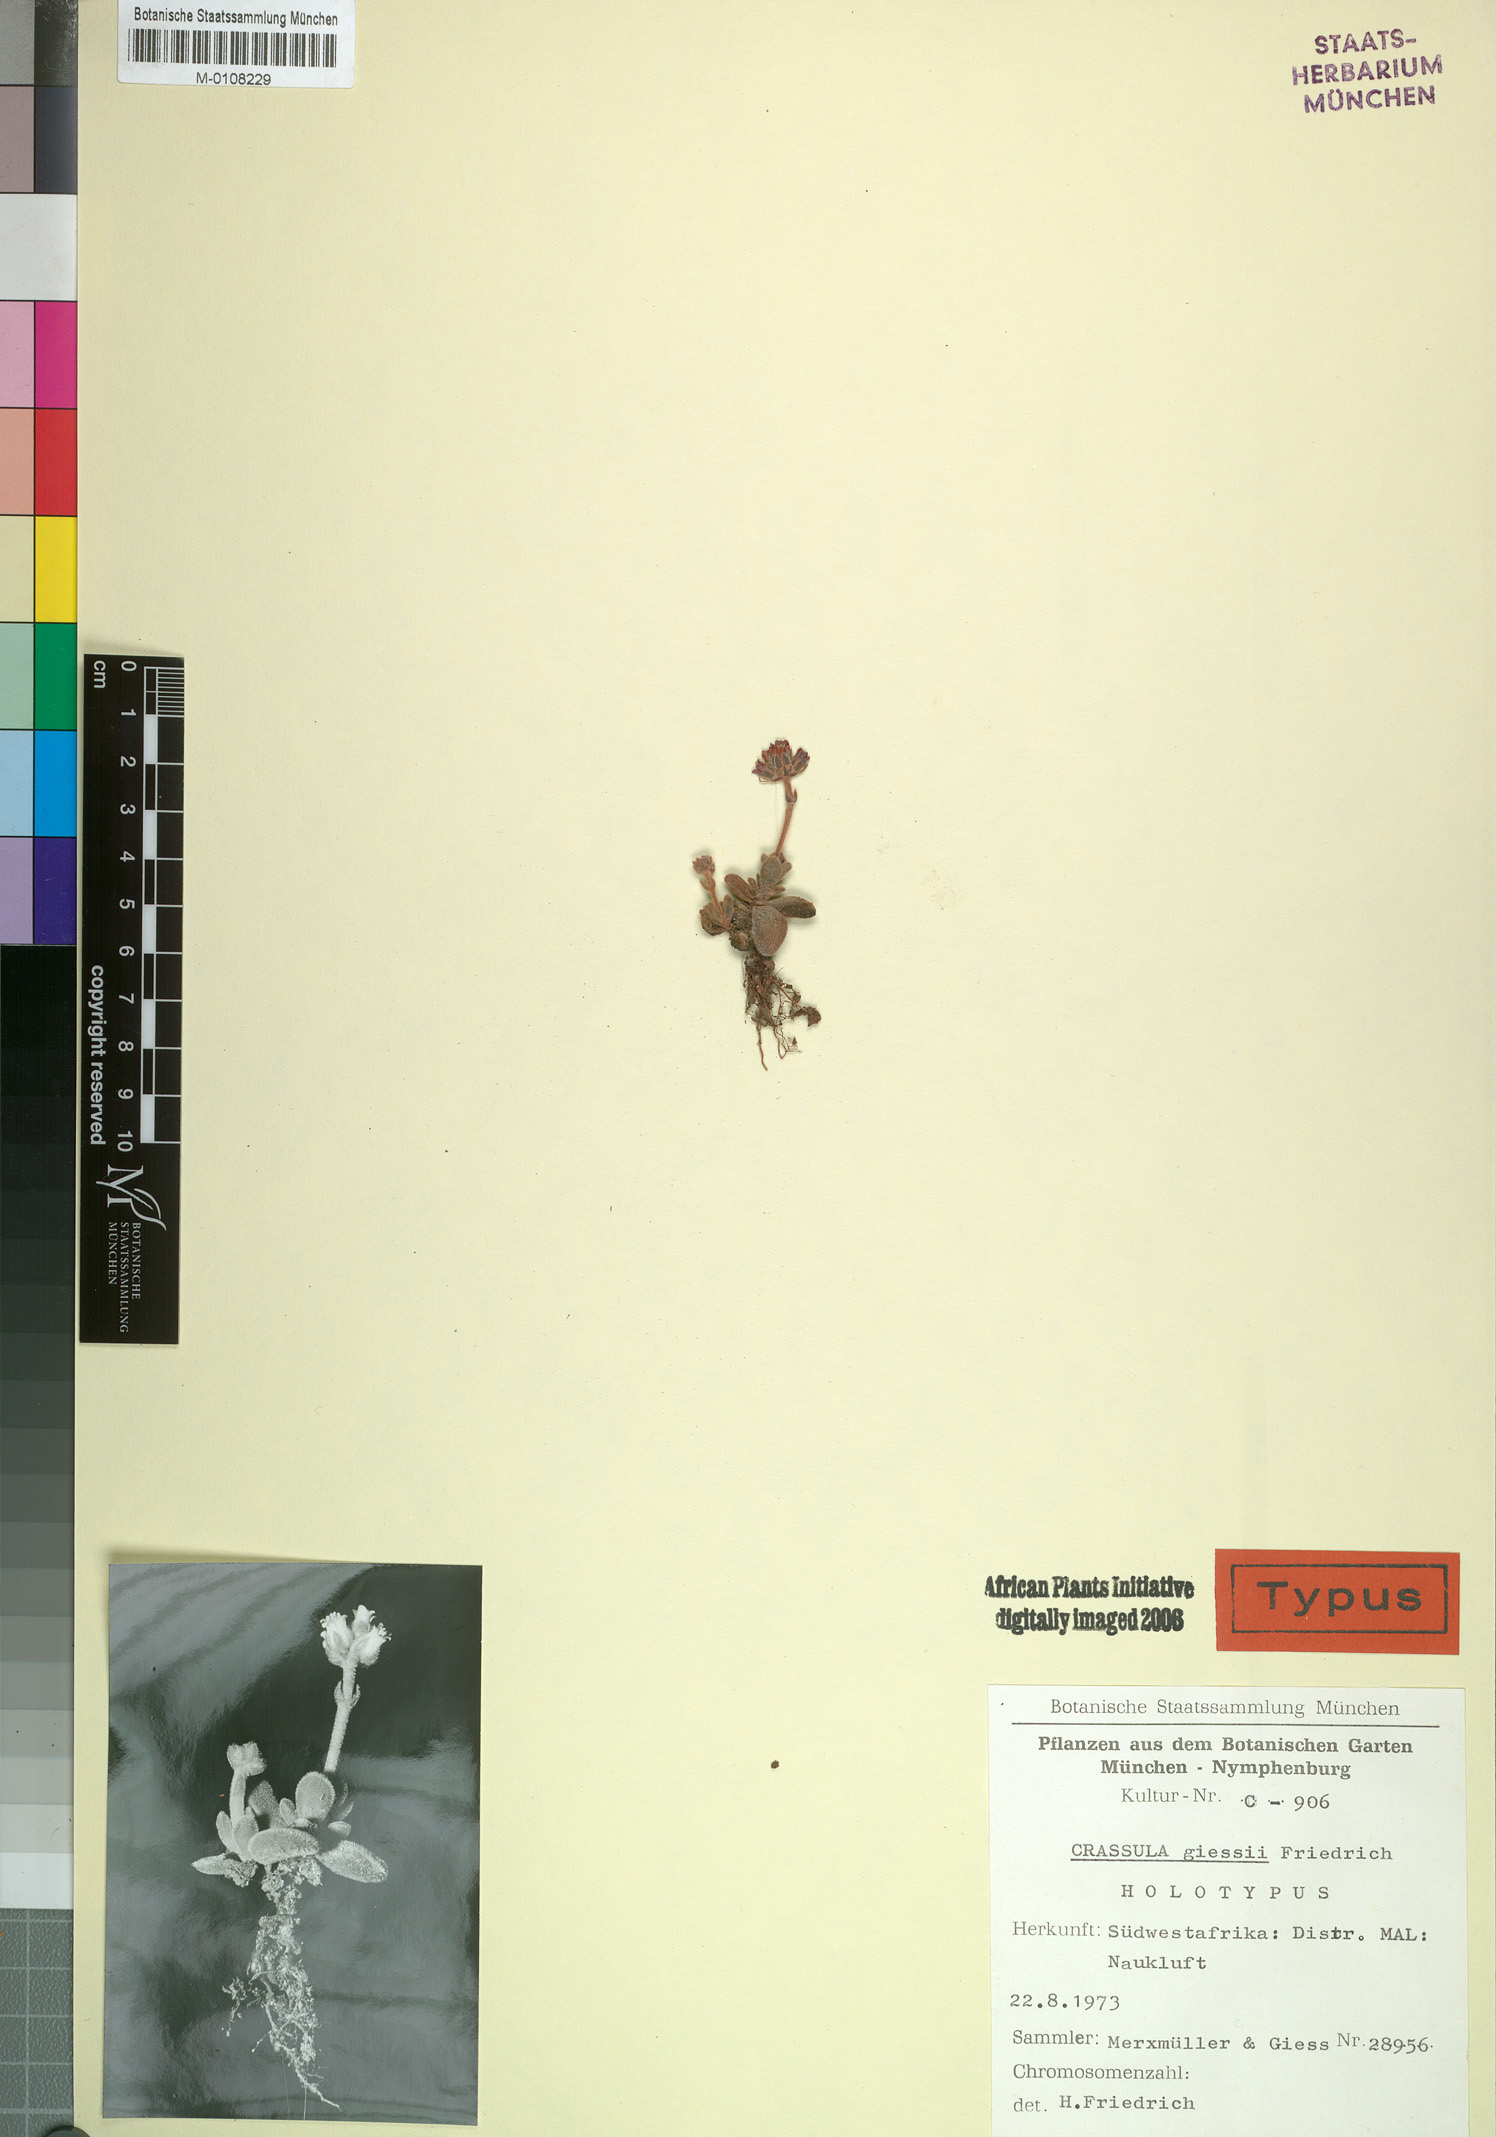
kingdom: Plantae
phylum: Tracheophyta
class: Magnoliopsida
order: Saxifragales
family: Crassulaceae
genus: Crassula
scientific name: Crassula ausensis
